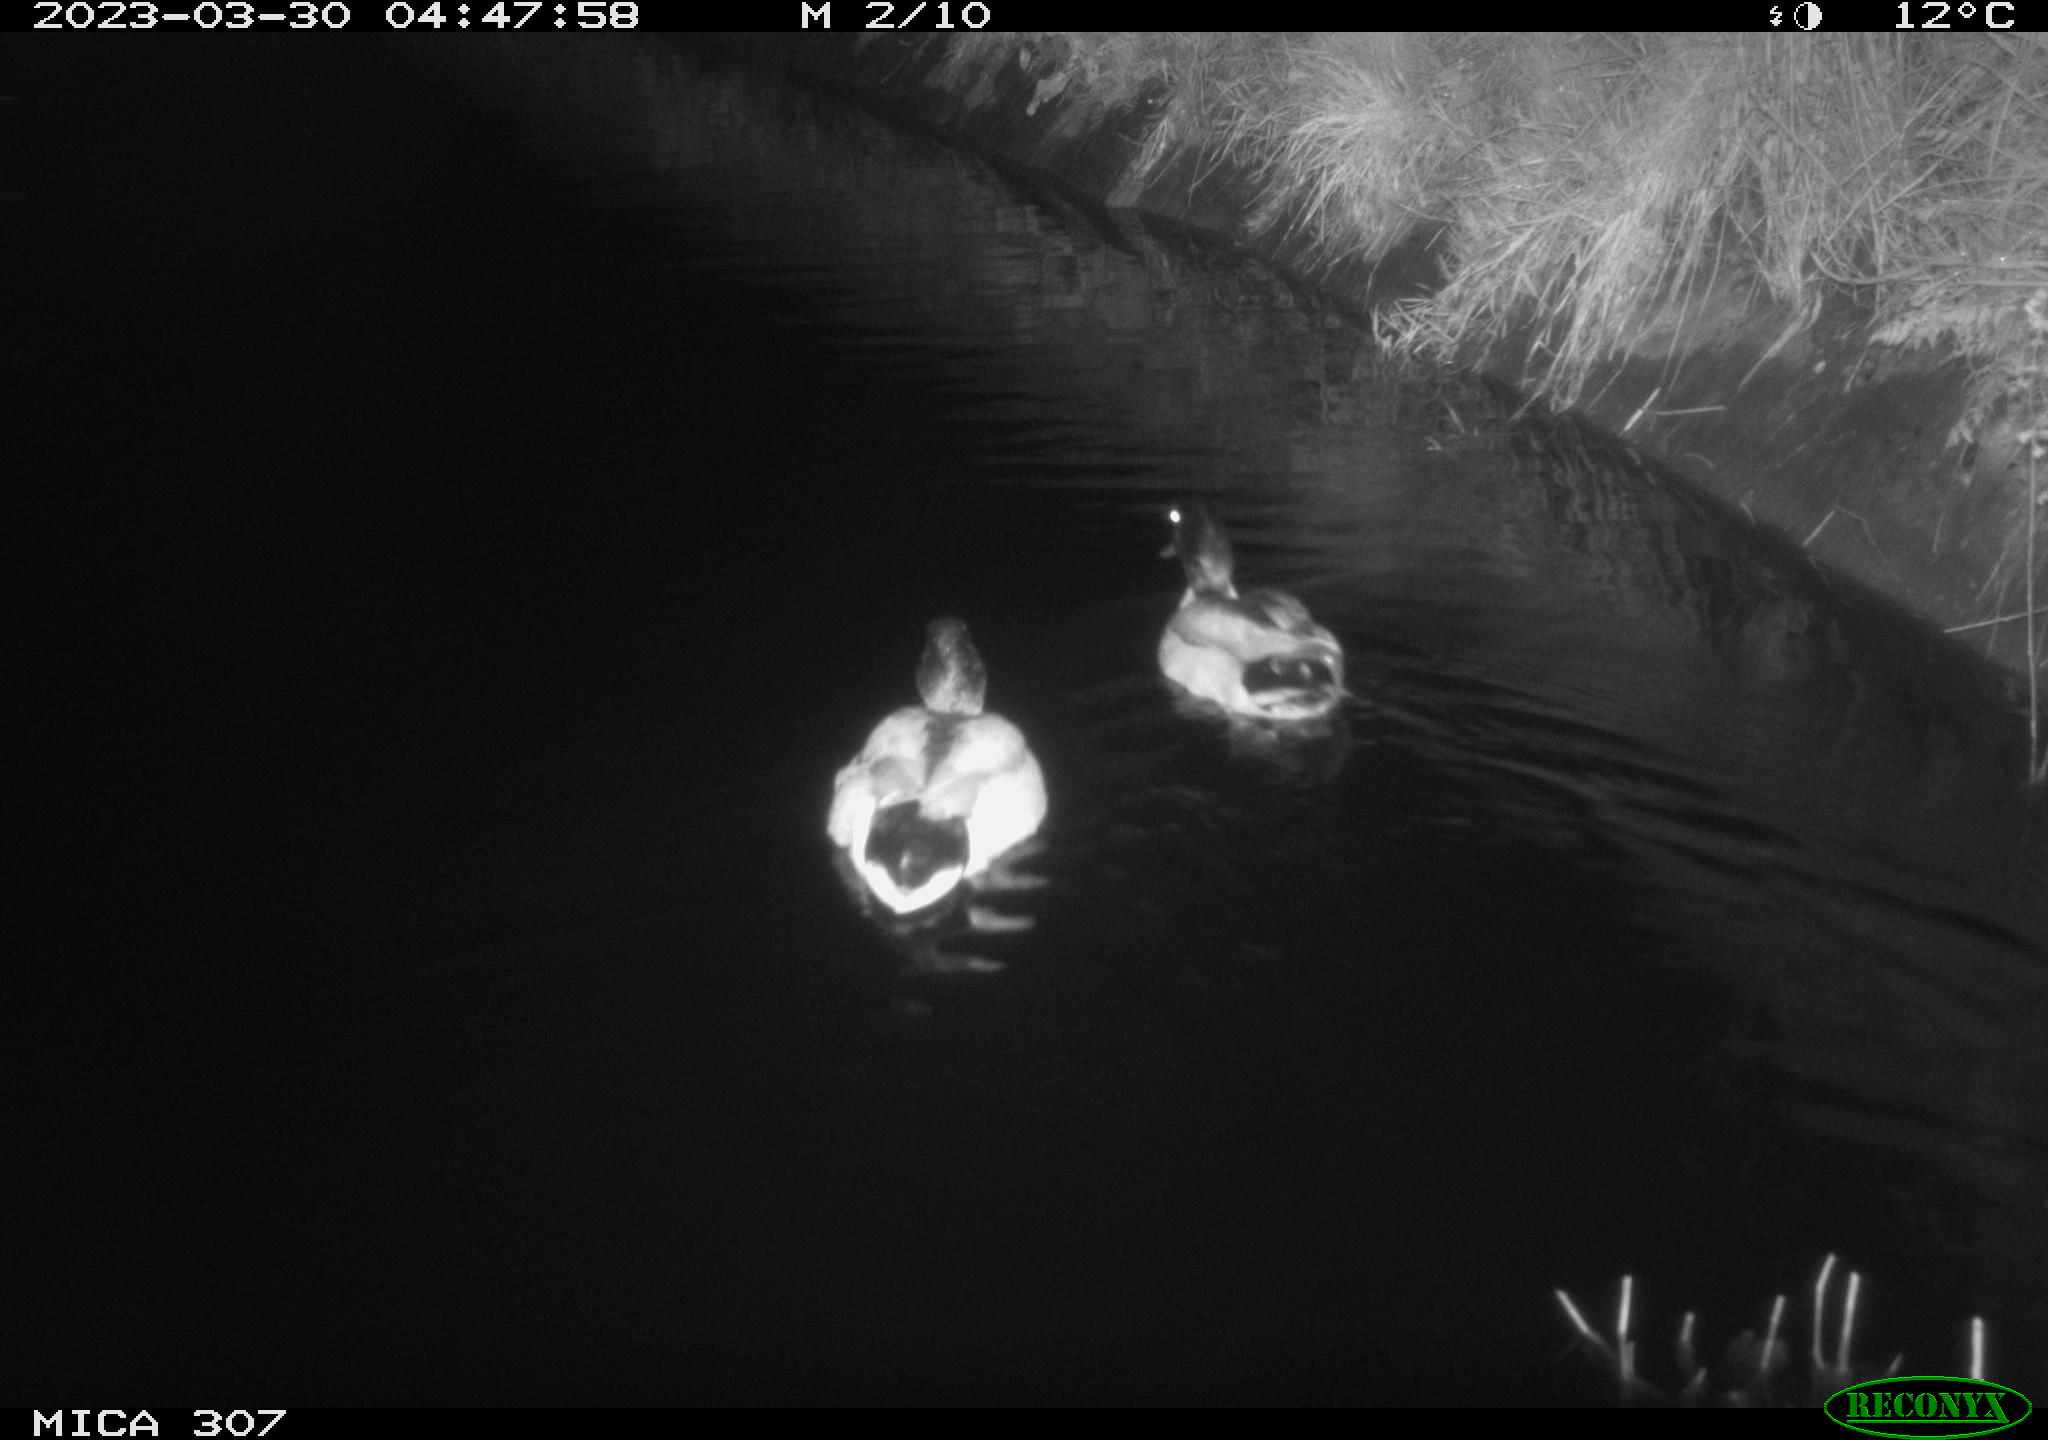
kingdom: Animalia
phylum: Chordata
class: Aves
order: Anseriformes
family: Anatidae
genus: Anas
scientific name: Anas
